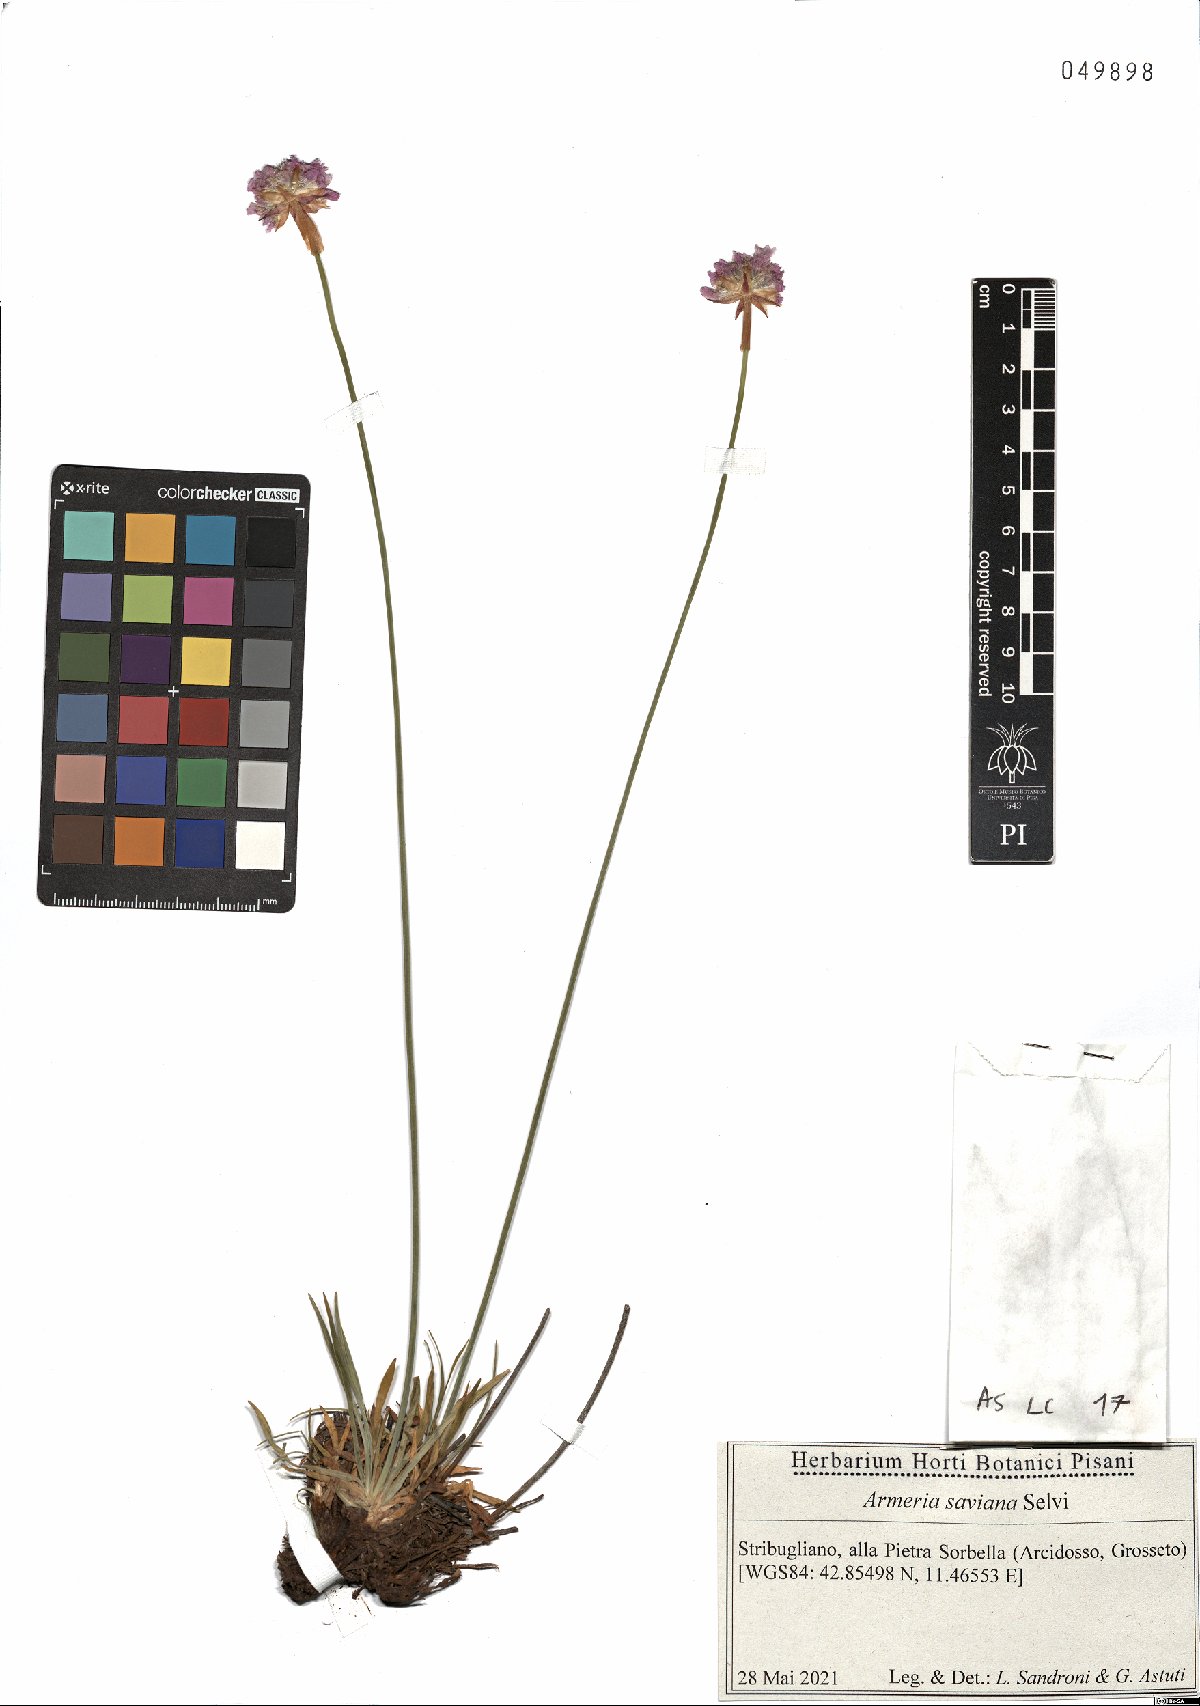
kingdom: Plantae
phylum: Tracheophyta
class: Magnoliopsida
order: Caryophyllales
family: Plumbaginaceae
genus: Armeria
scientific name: Armeria saviana
